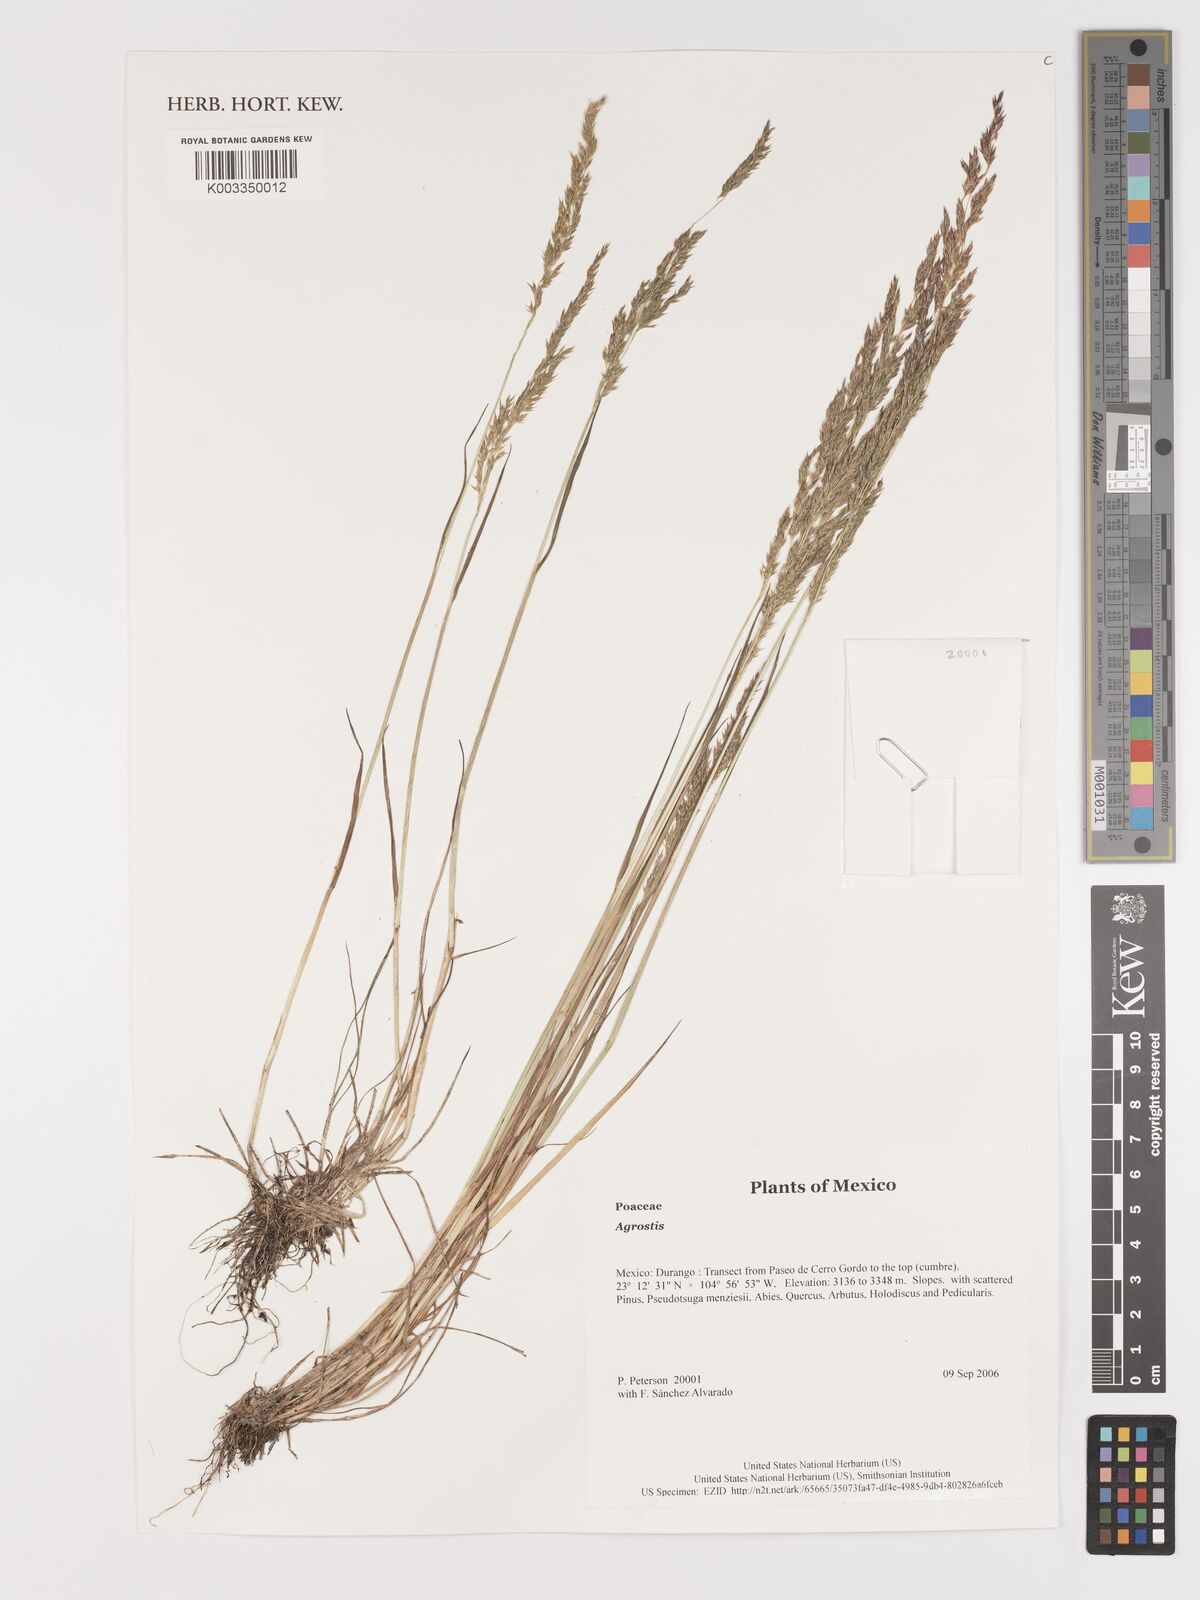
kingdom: Plantae
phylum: Tracheophyta
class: Liliopsida
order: Poales
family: Poaceae
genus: Agrostis
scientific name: Agrostis
